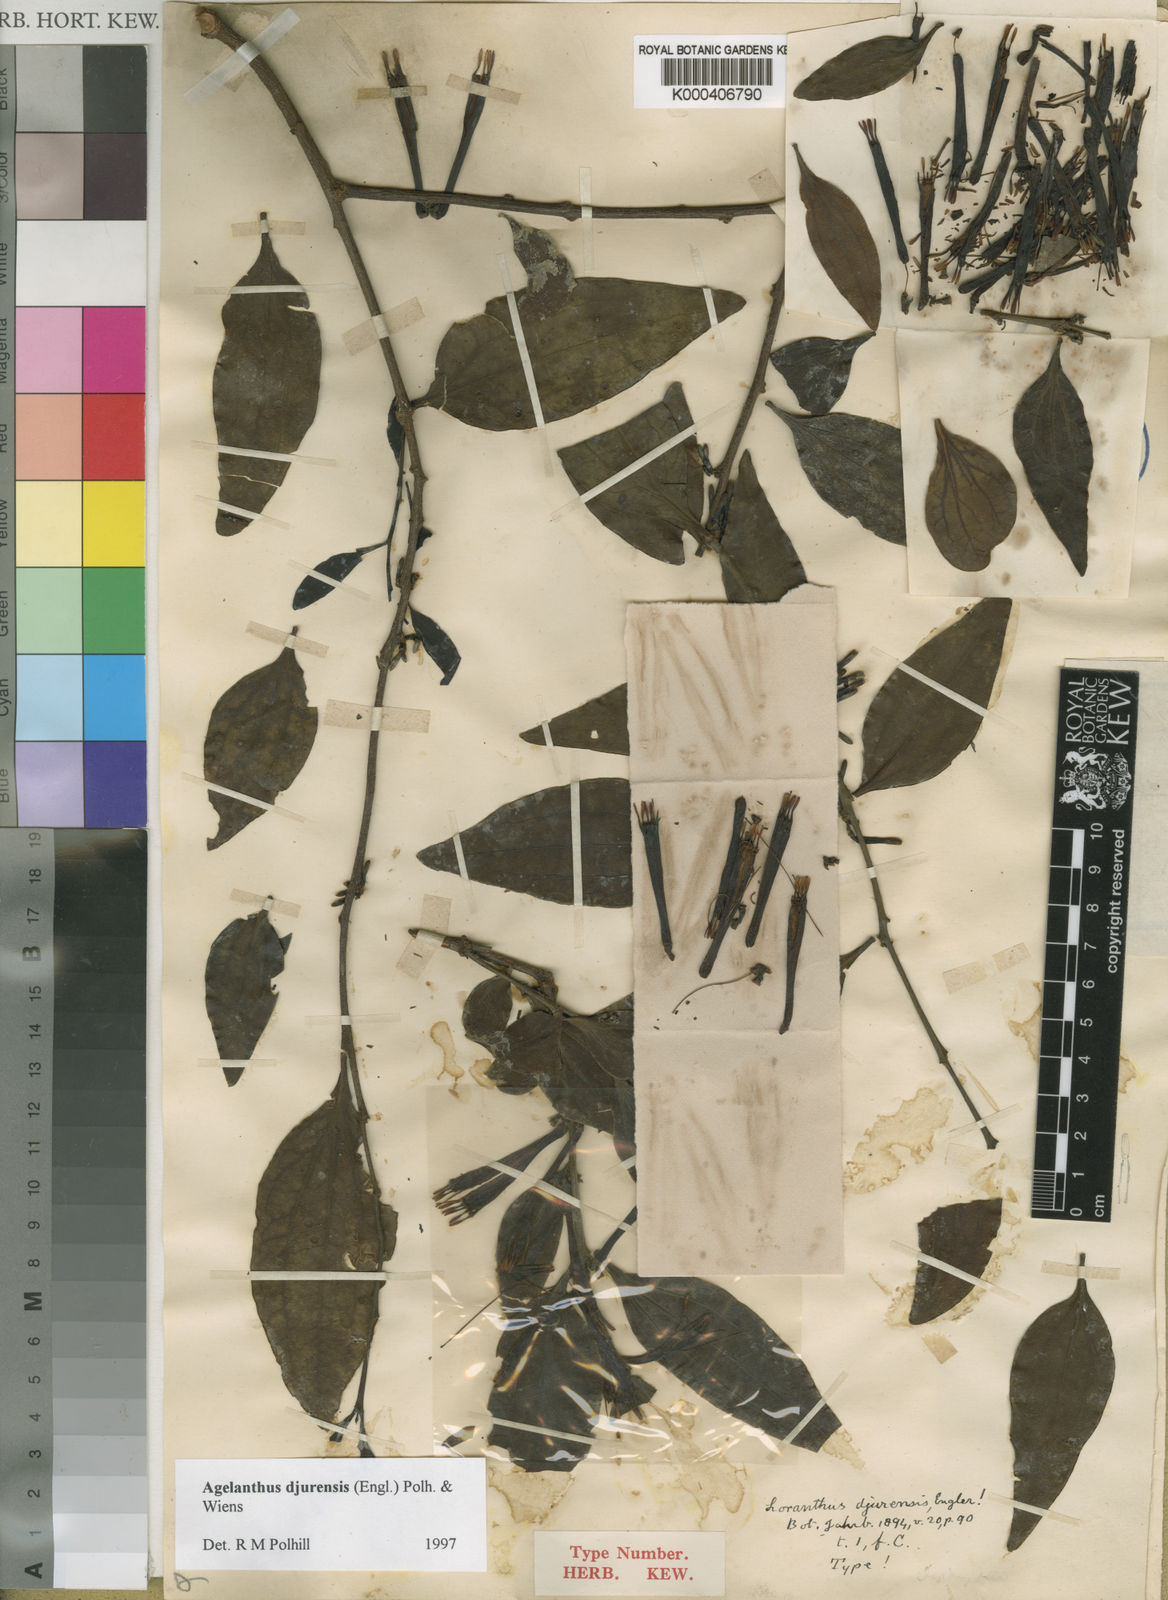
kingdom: Plantae
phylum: Tracheophyta
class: Magnoliopsida
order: Santalales
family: Loranthaceae
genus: Agelanthus
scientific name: Agelanthus djurensis
